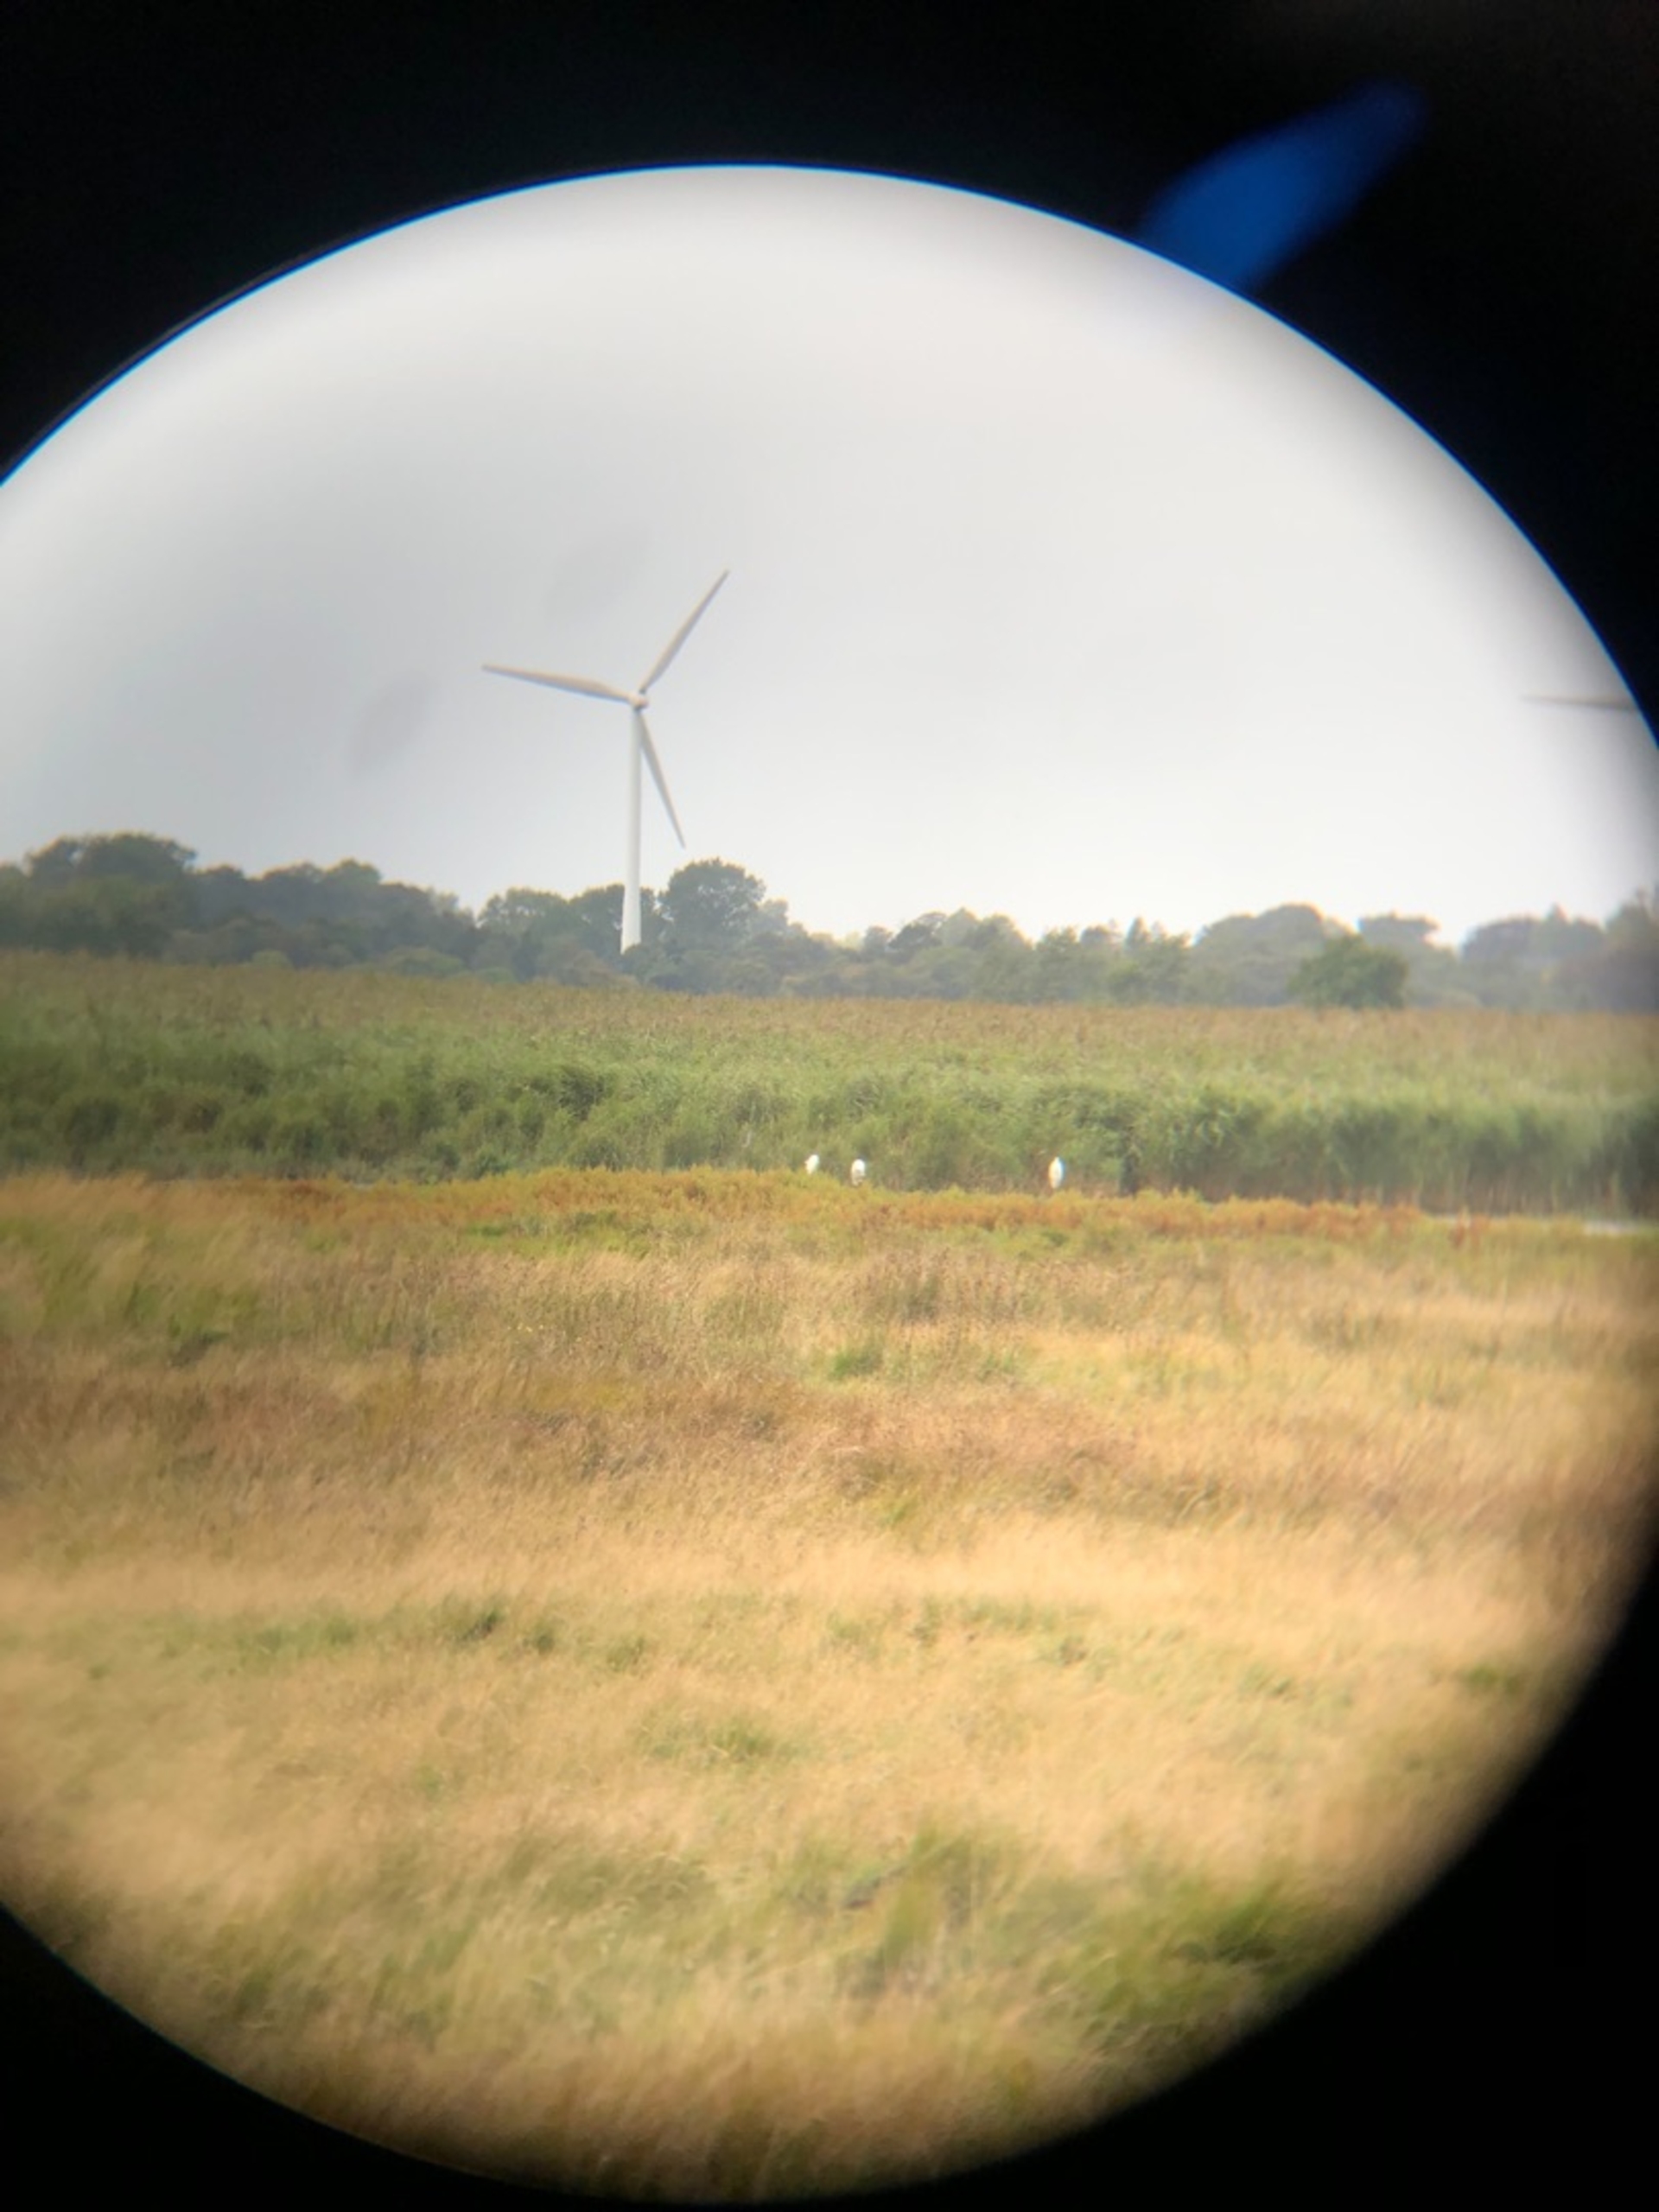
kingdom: Animalia
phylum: Chordata
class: Aves
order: Pelecaniformes
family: Ardeidae
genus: Ardea
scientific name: Ardea alba
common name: Sølvhejre
